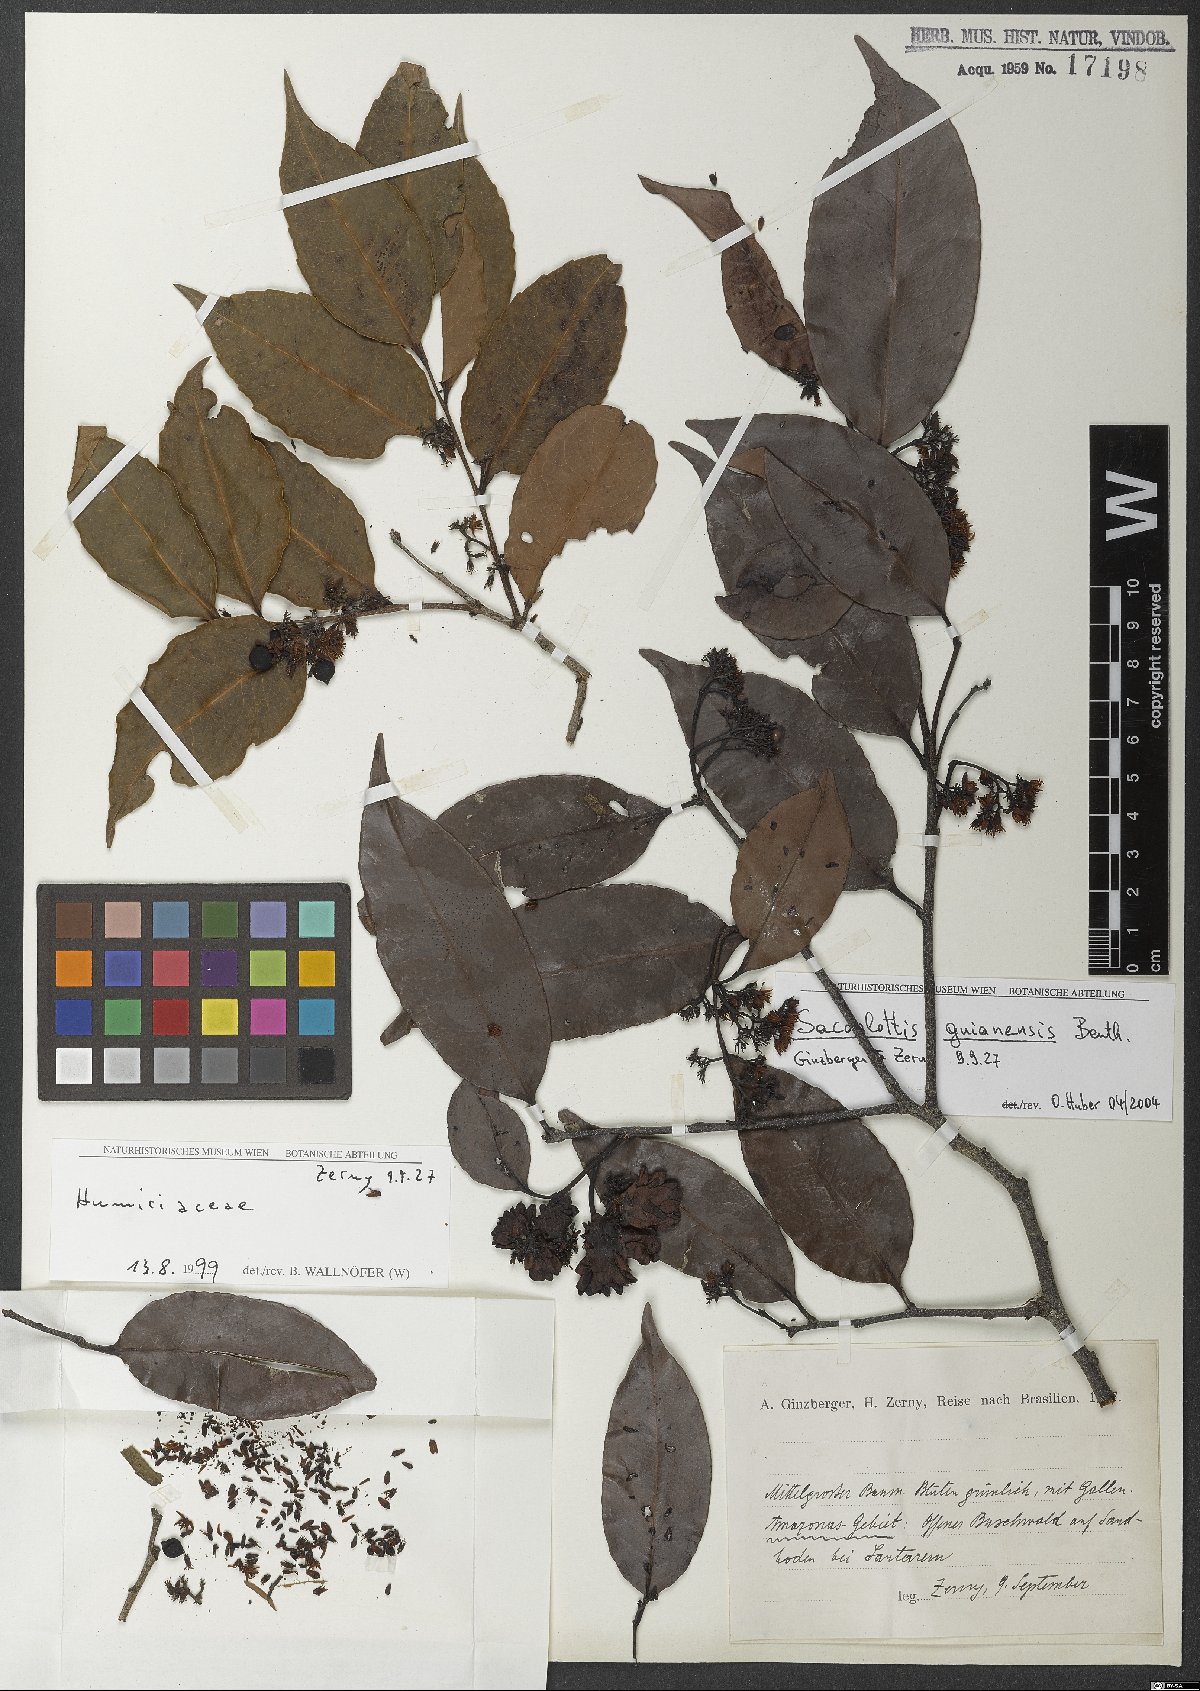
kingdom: Plantae
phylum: Tracheophyta
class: Magnoliopsida
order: Malpighiales
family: Humiriaceae
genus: Sacoglottis
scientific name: Sacoglottis guianensis
